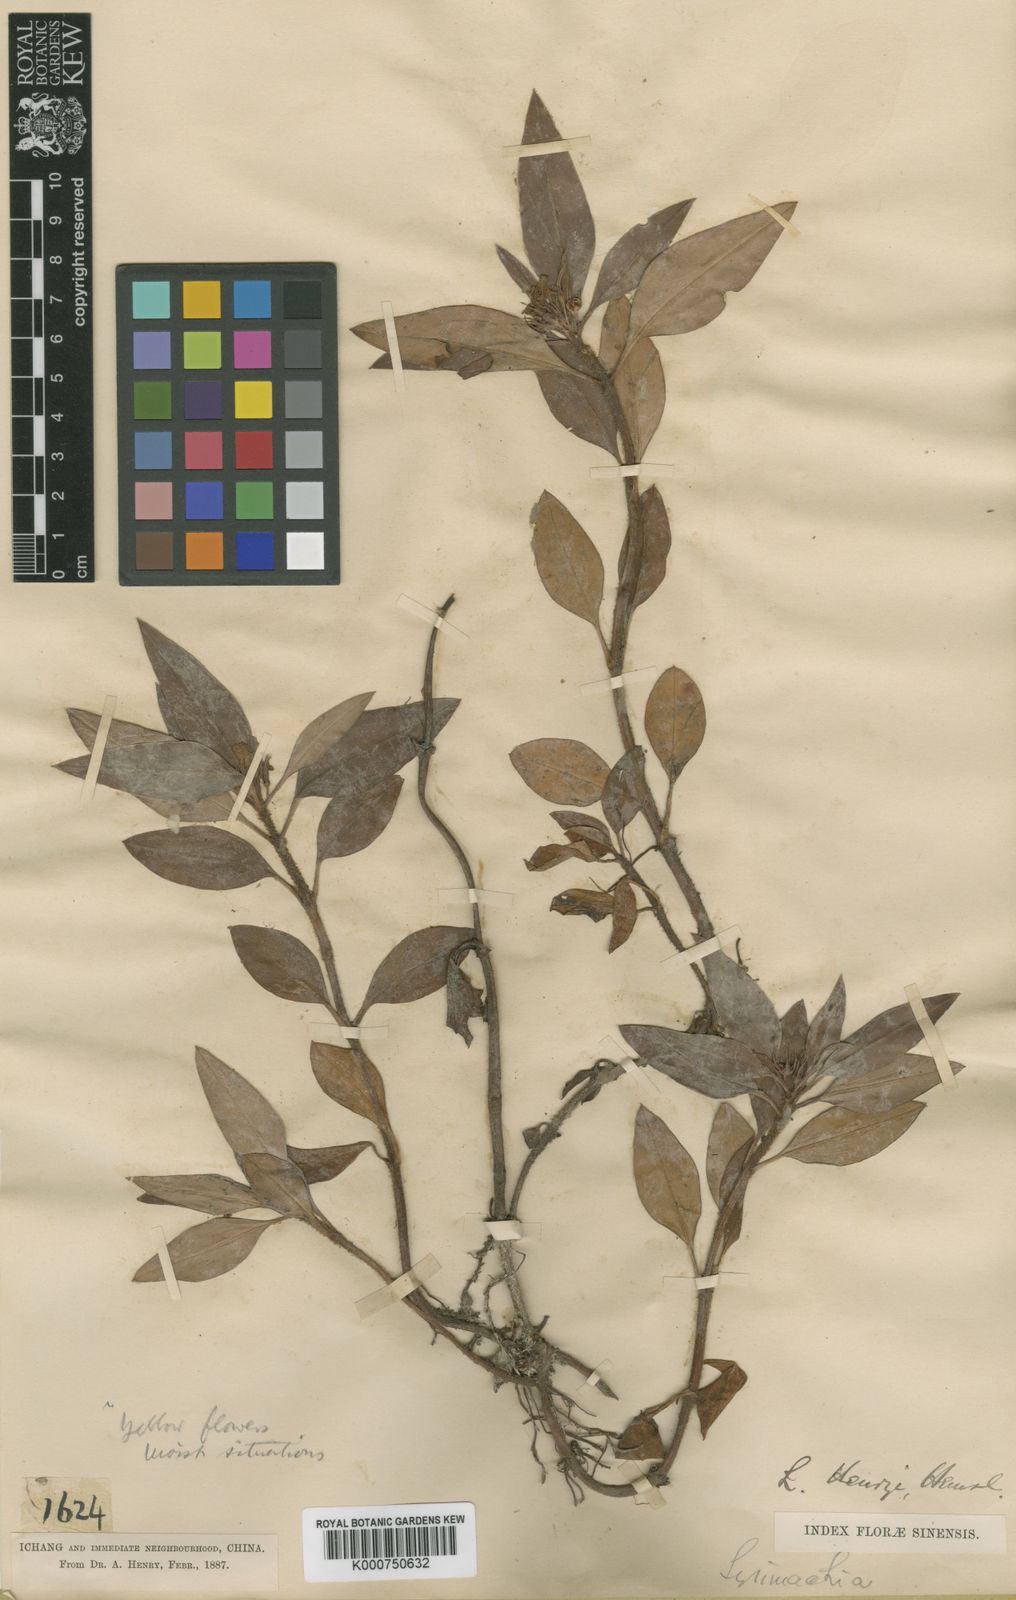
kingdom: Plantae
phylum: Tracheophyta
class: Magnoliopsida
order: Ericales
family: Primulaceae
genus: Lysimachia
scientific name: Lysimachia henryi
